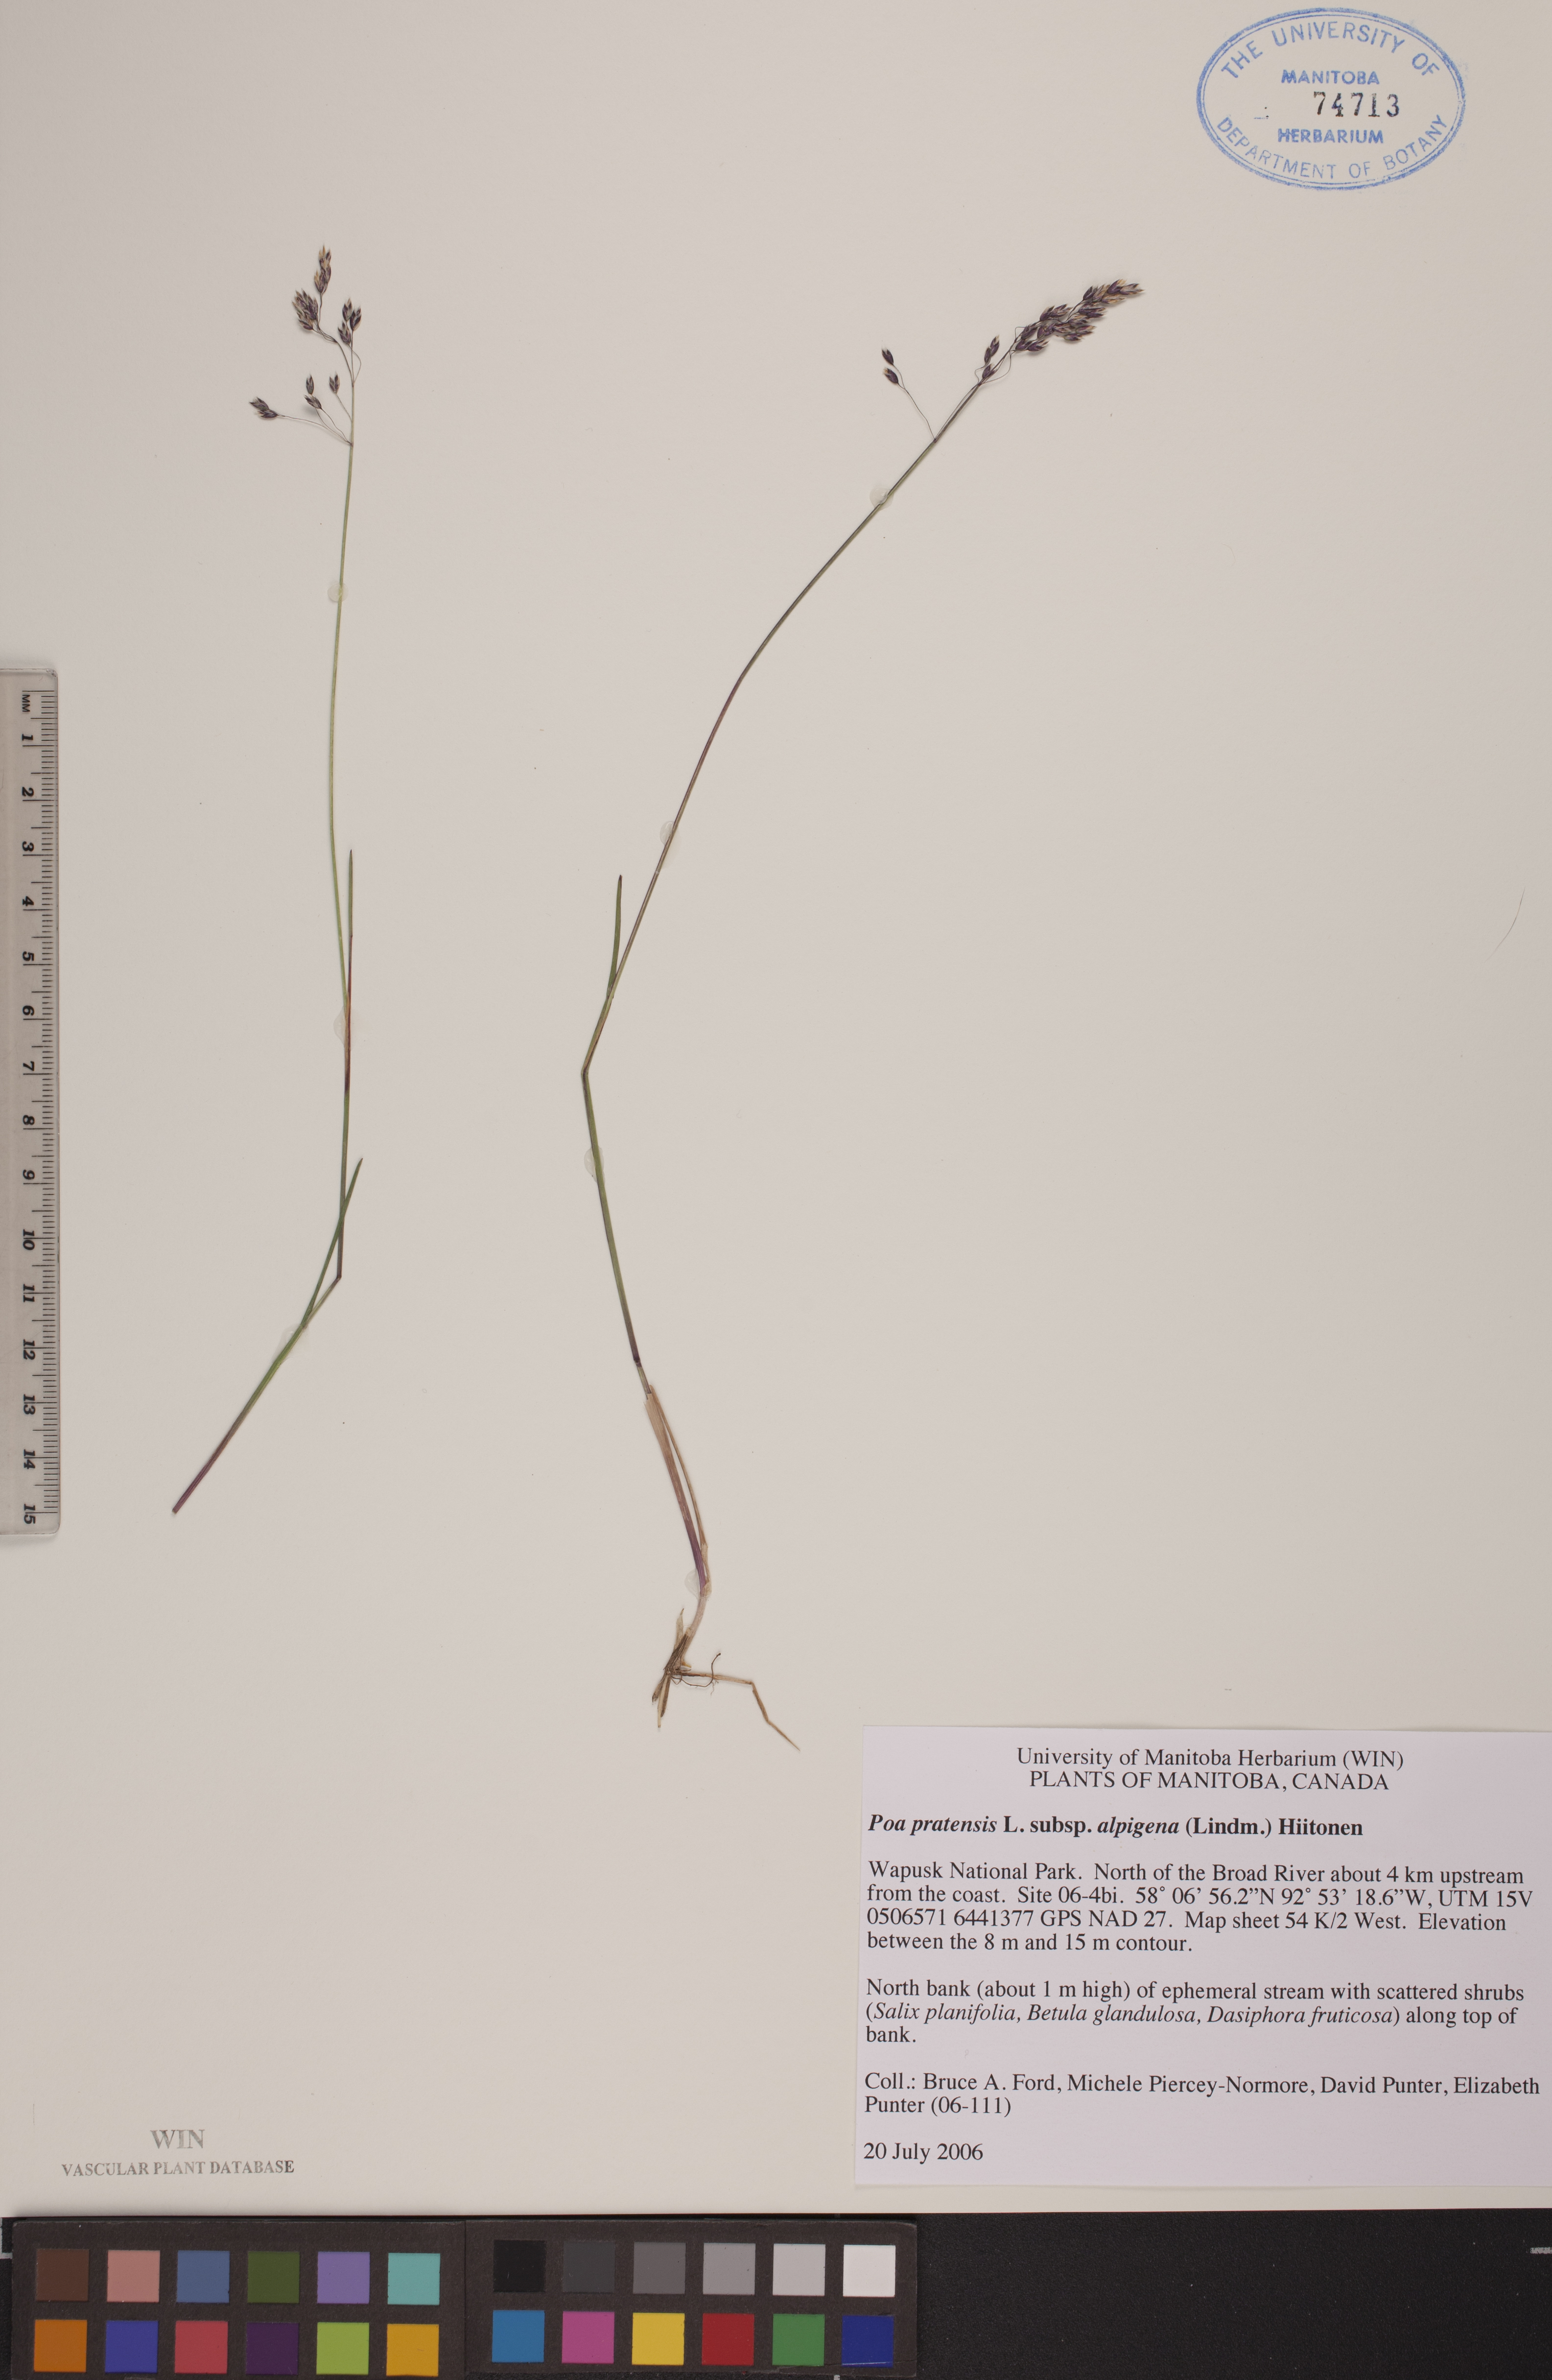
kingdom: Plantae
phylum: Tracheophyta
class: Liliopsida
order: Poales
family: Poaceae
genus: Poa
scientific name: Poa alpigena
